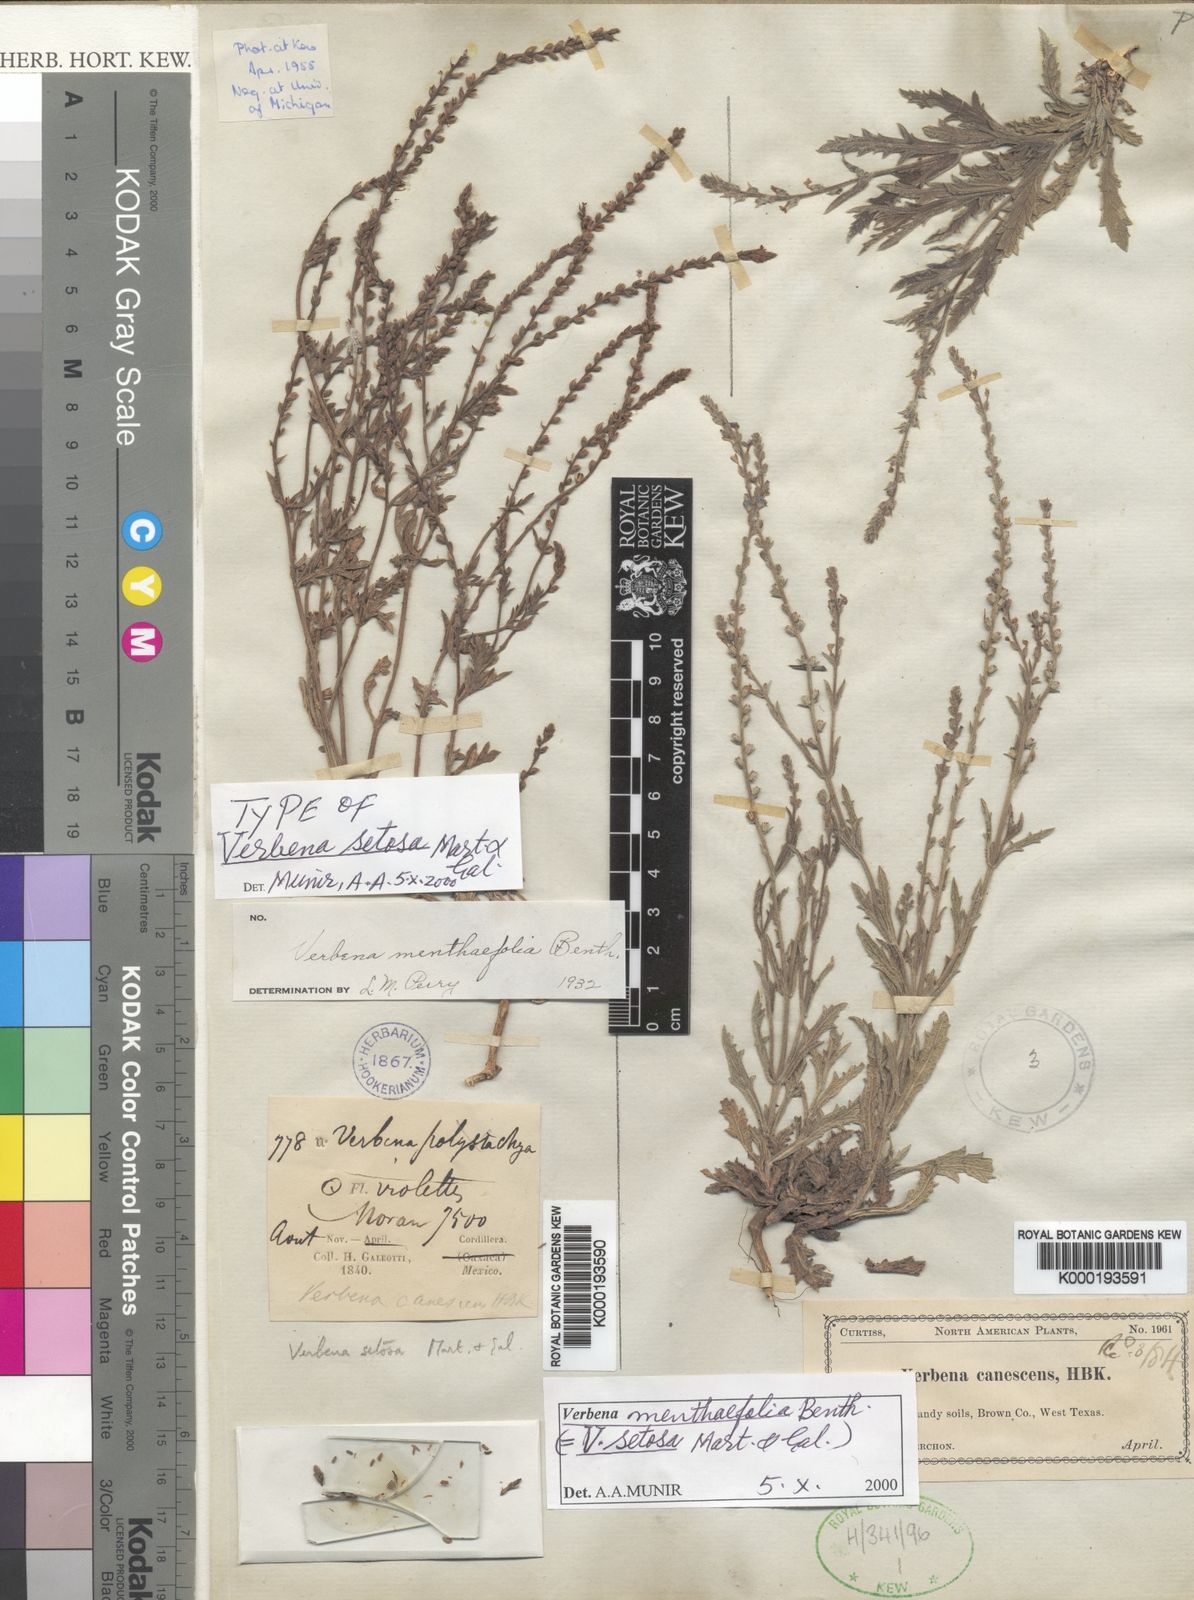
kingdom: Plantae
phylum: Tracheophyta
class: Magnoliopsida
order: Lamiales
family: Verbenaceae
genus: Verbena
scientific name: Verbena menthifolia
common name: Mint-leaf vervain
